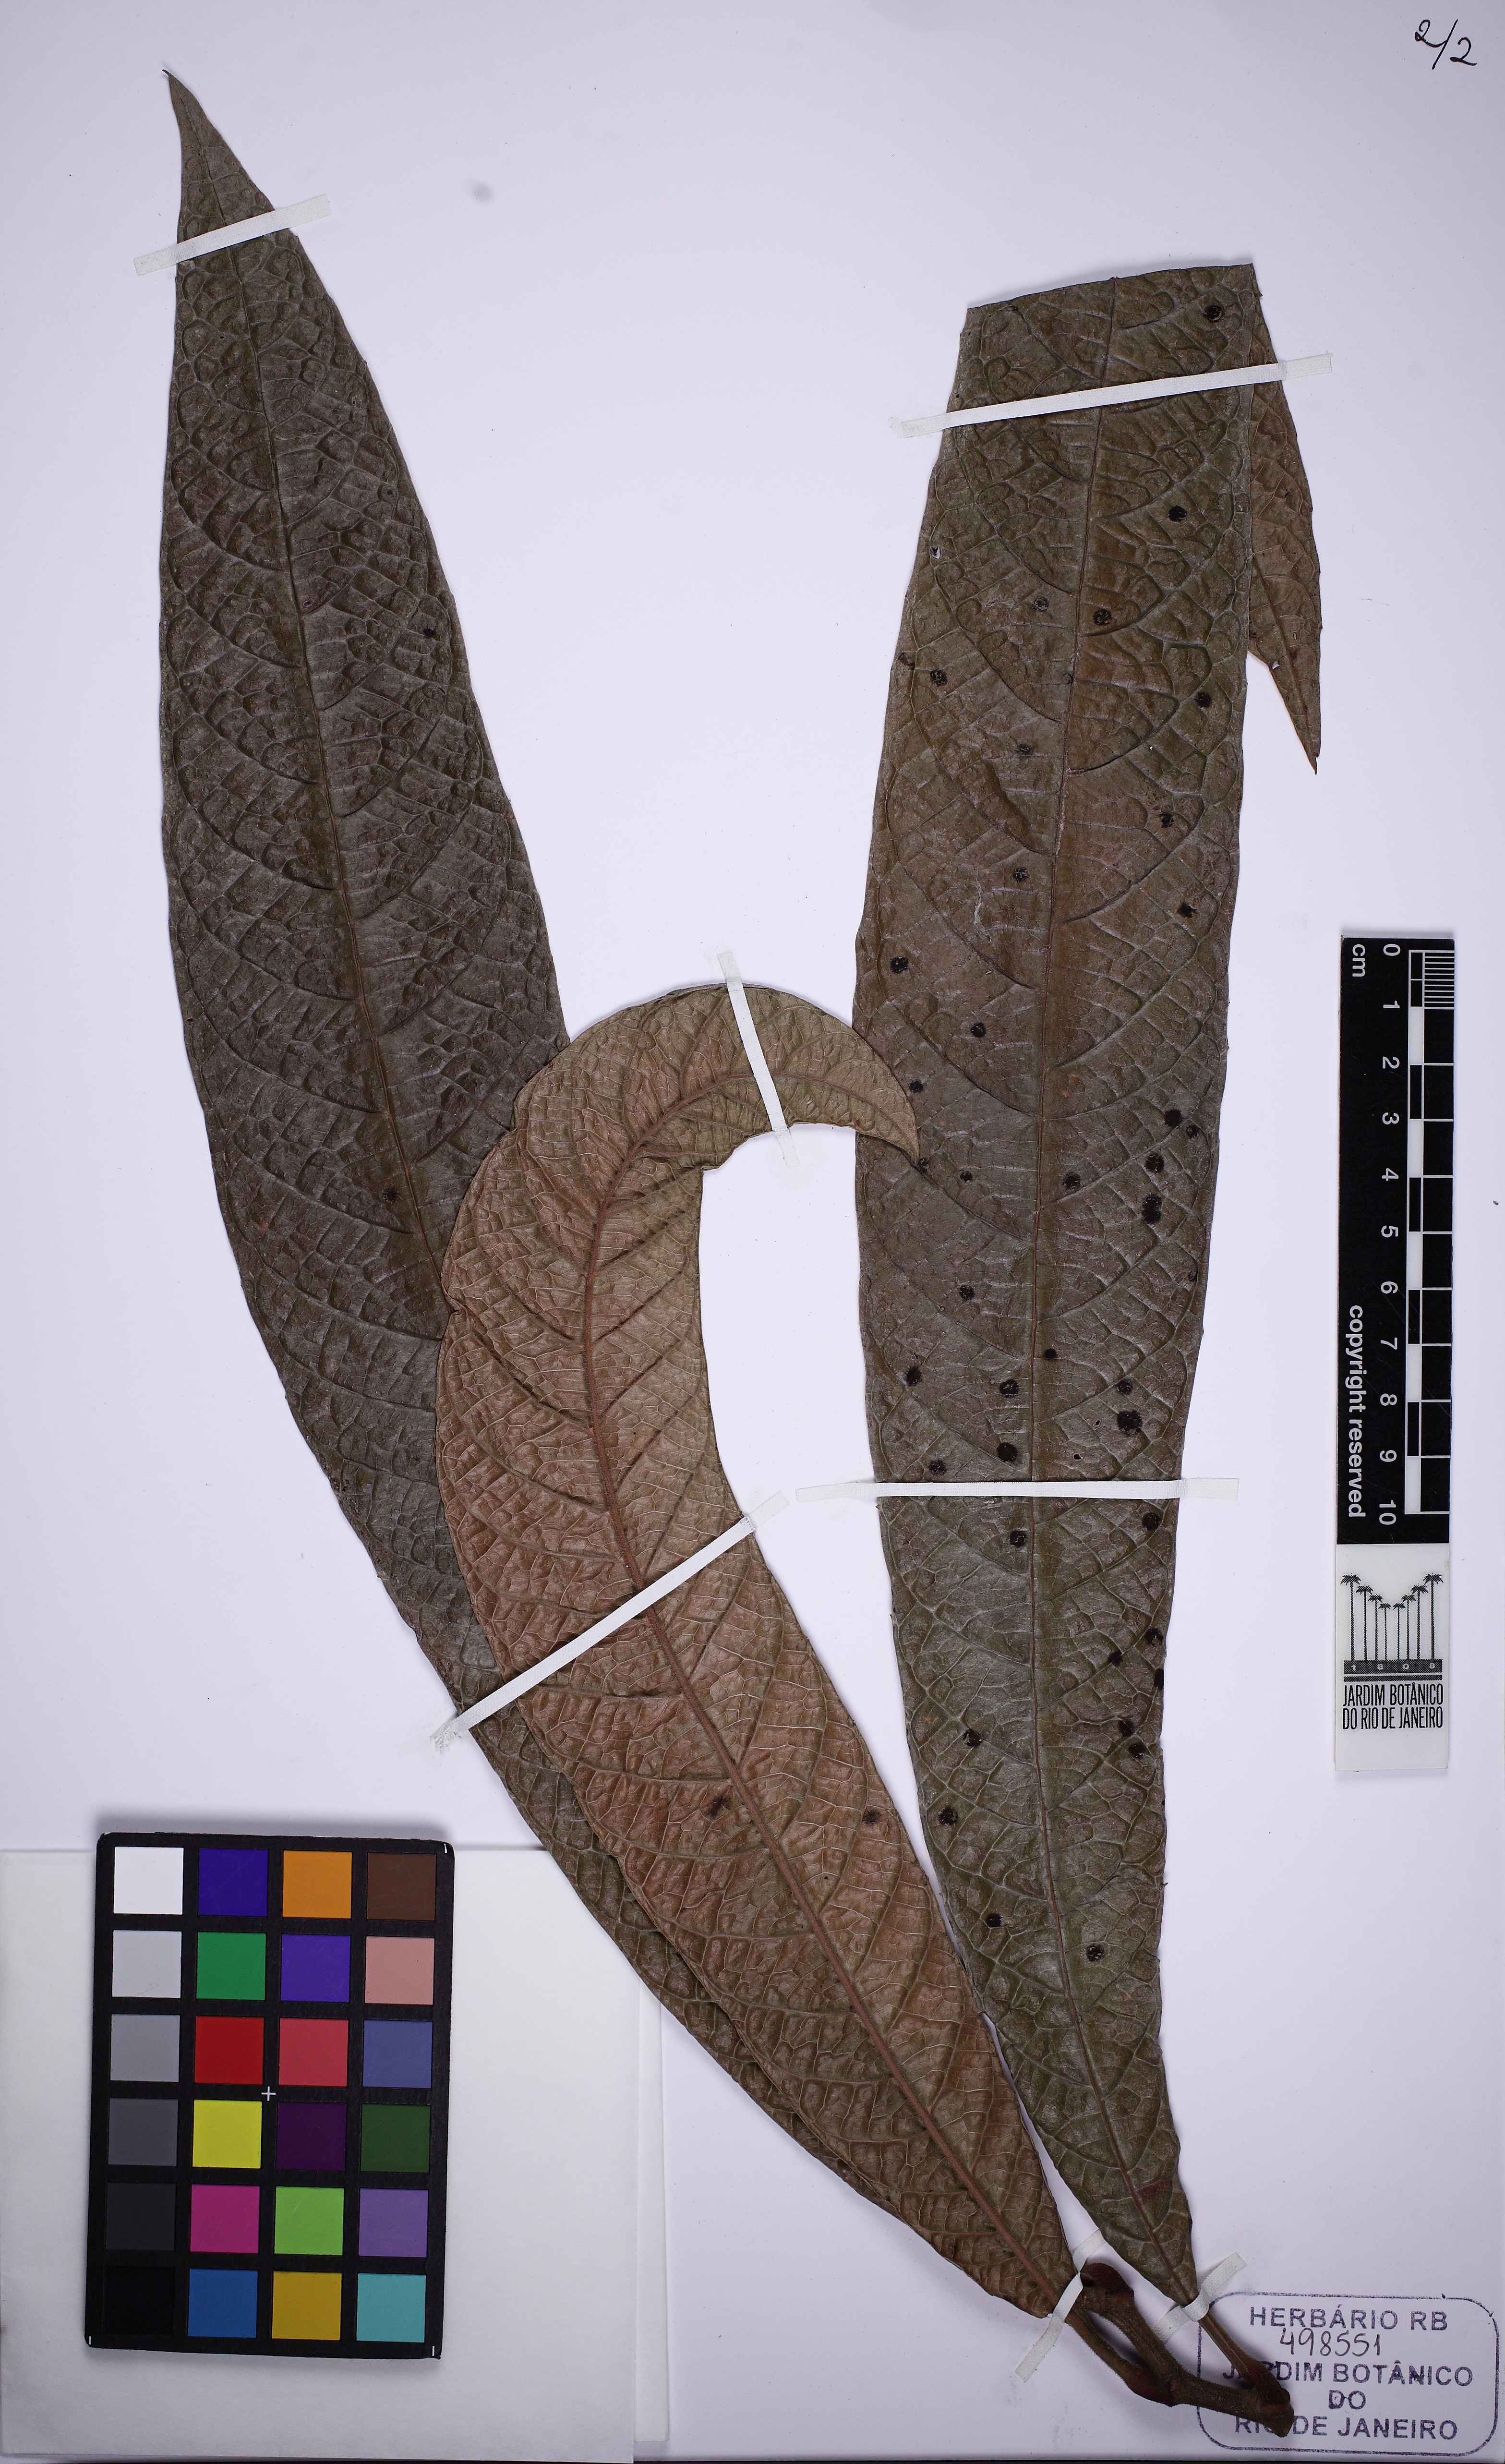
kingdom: Plantae
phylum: Tracheophyta
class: Magnoliopsida
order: Dilleniales
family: Dilleniaceae
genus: Davilla
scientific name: Davilla glaziovii
